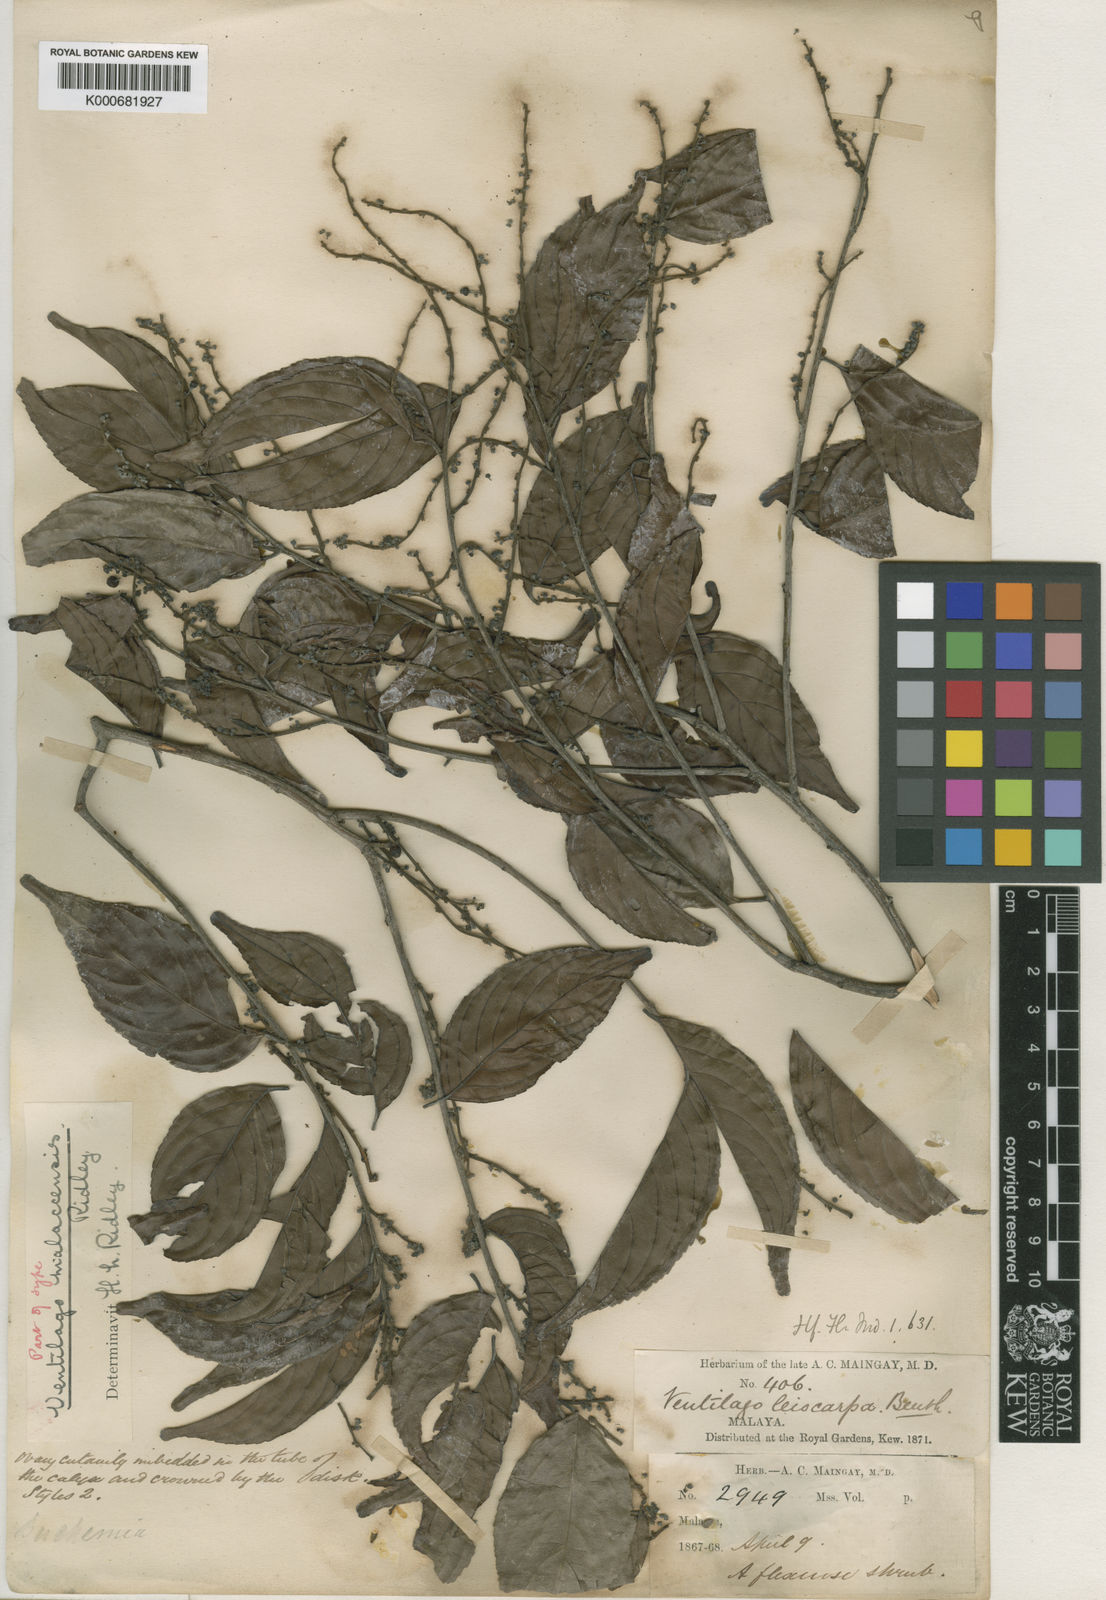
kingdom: Plantae
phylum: Tracheophyta
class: Magnoliopsida
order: Rosales
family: Rhamnaceae
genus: Ventilago
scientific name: Ventilago malaccensis
